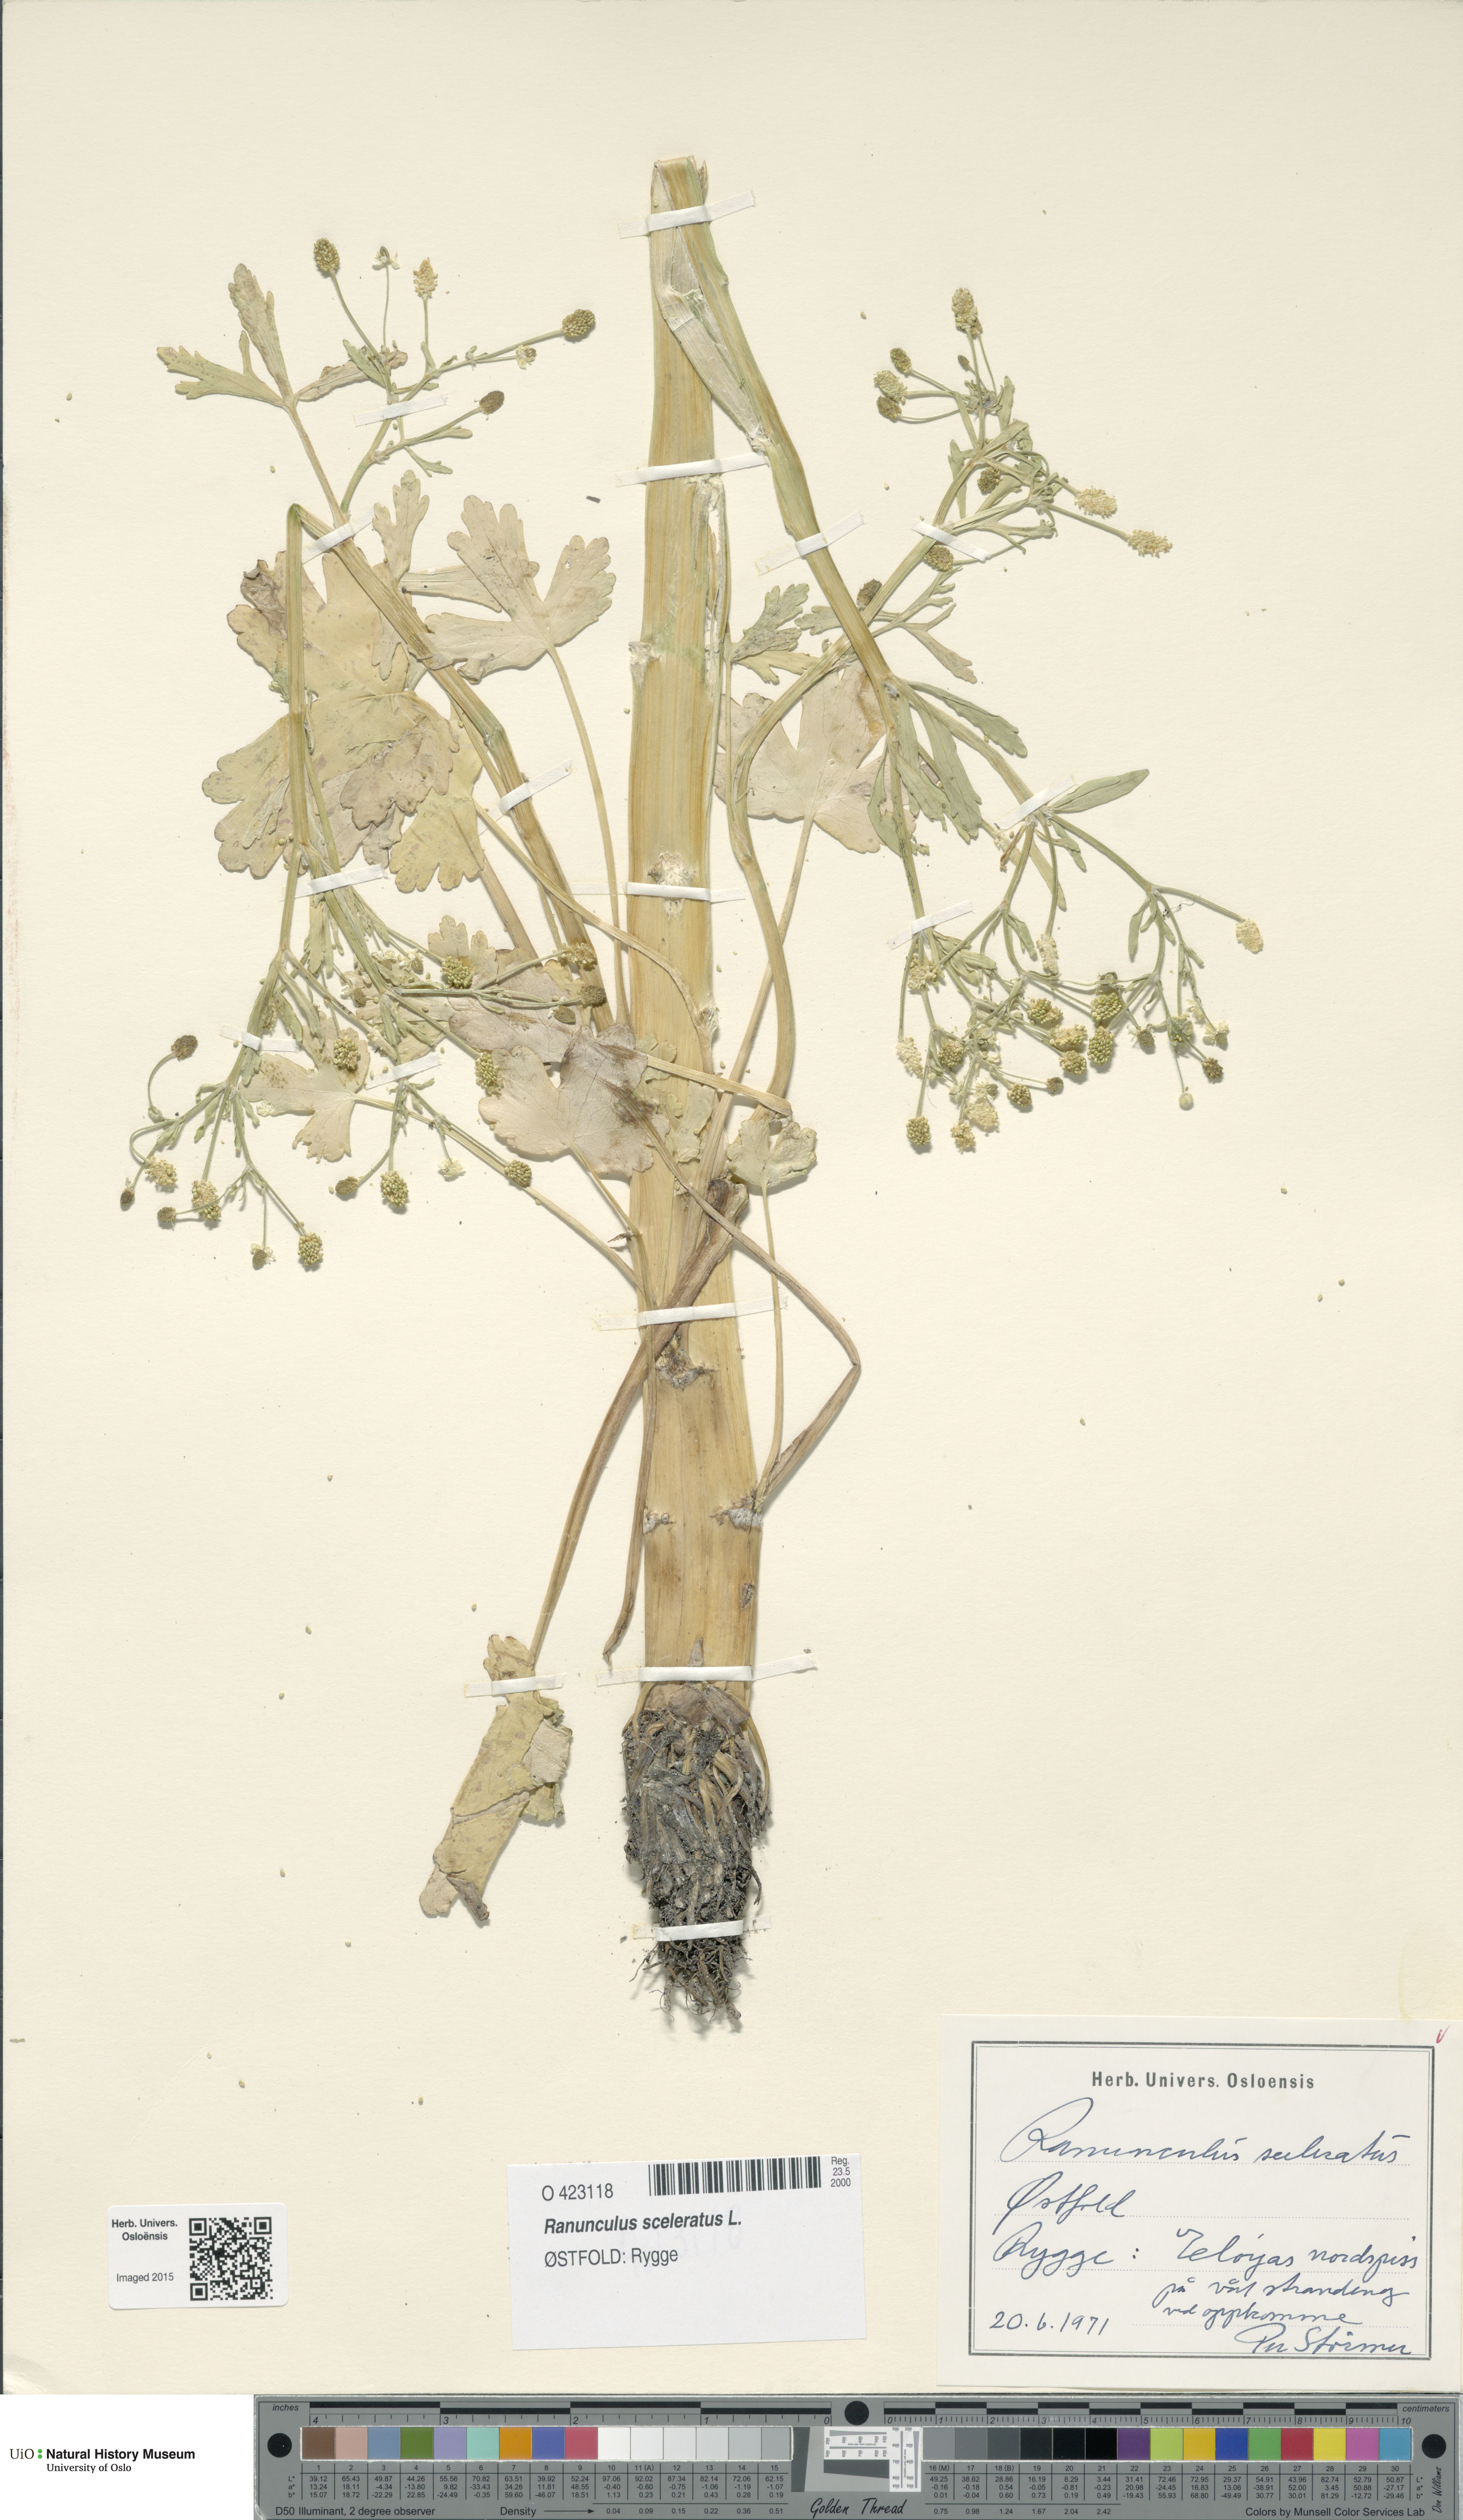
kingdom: Plantae
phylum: Tracheophyta
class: Magnoliopsida
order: Ranunculales
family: Ranunculaceae
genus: Ranunculus
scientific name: Ranunculus sceleratus
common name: Celery-leaved buttercup
